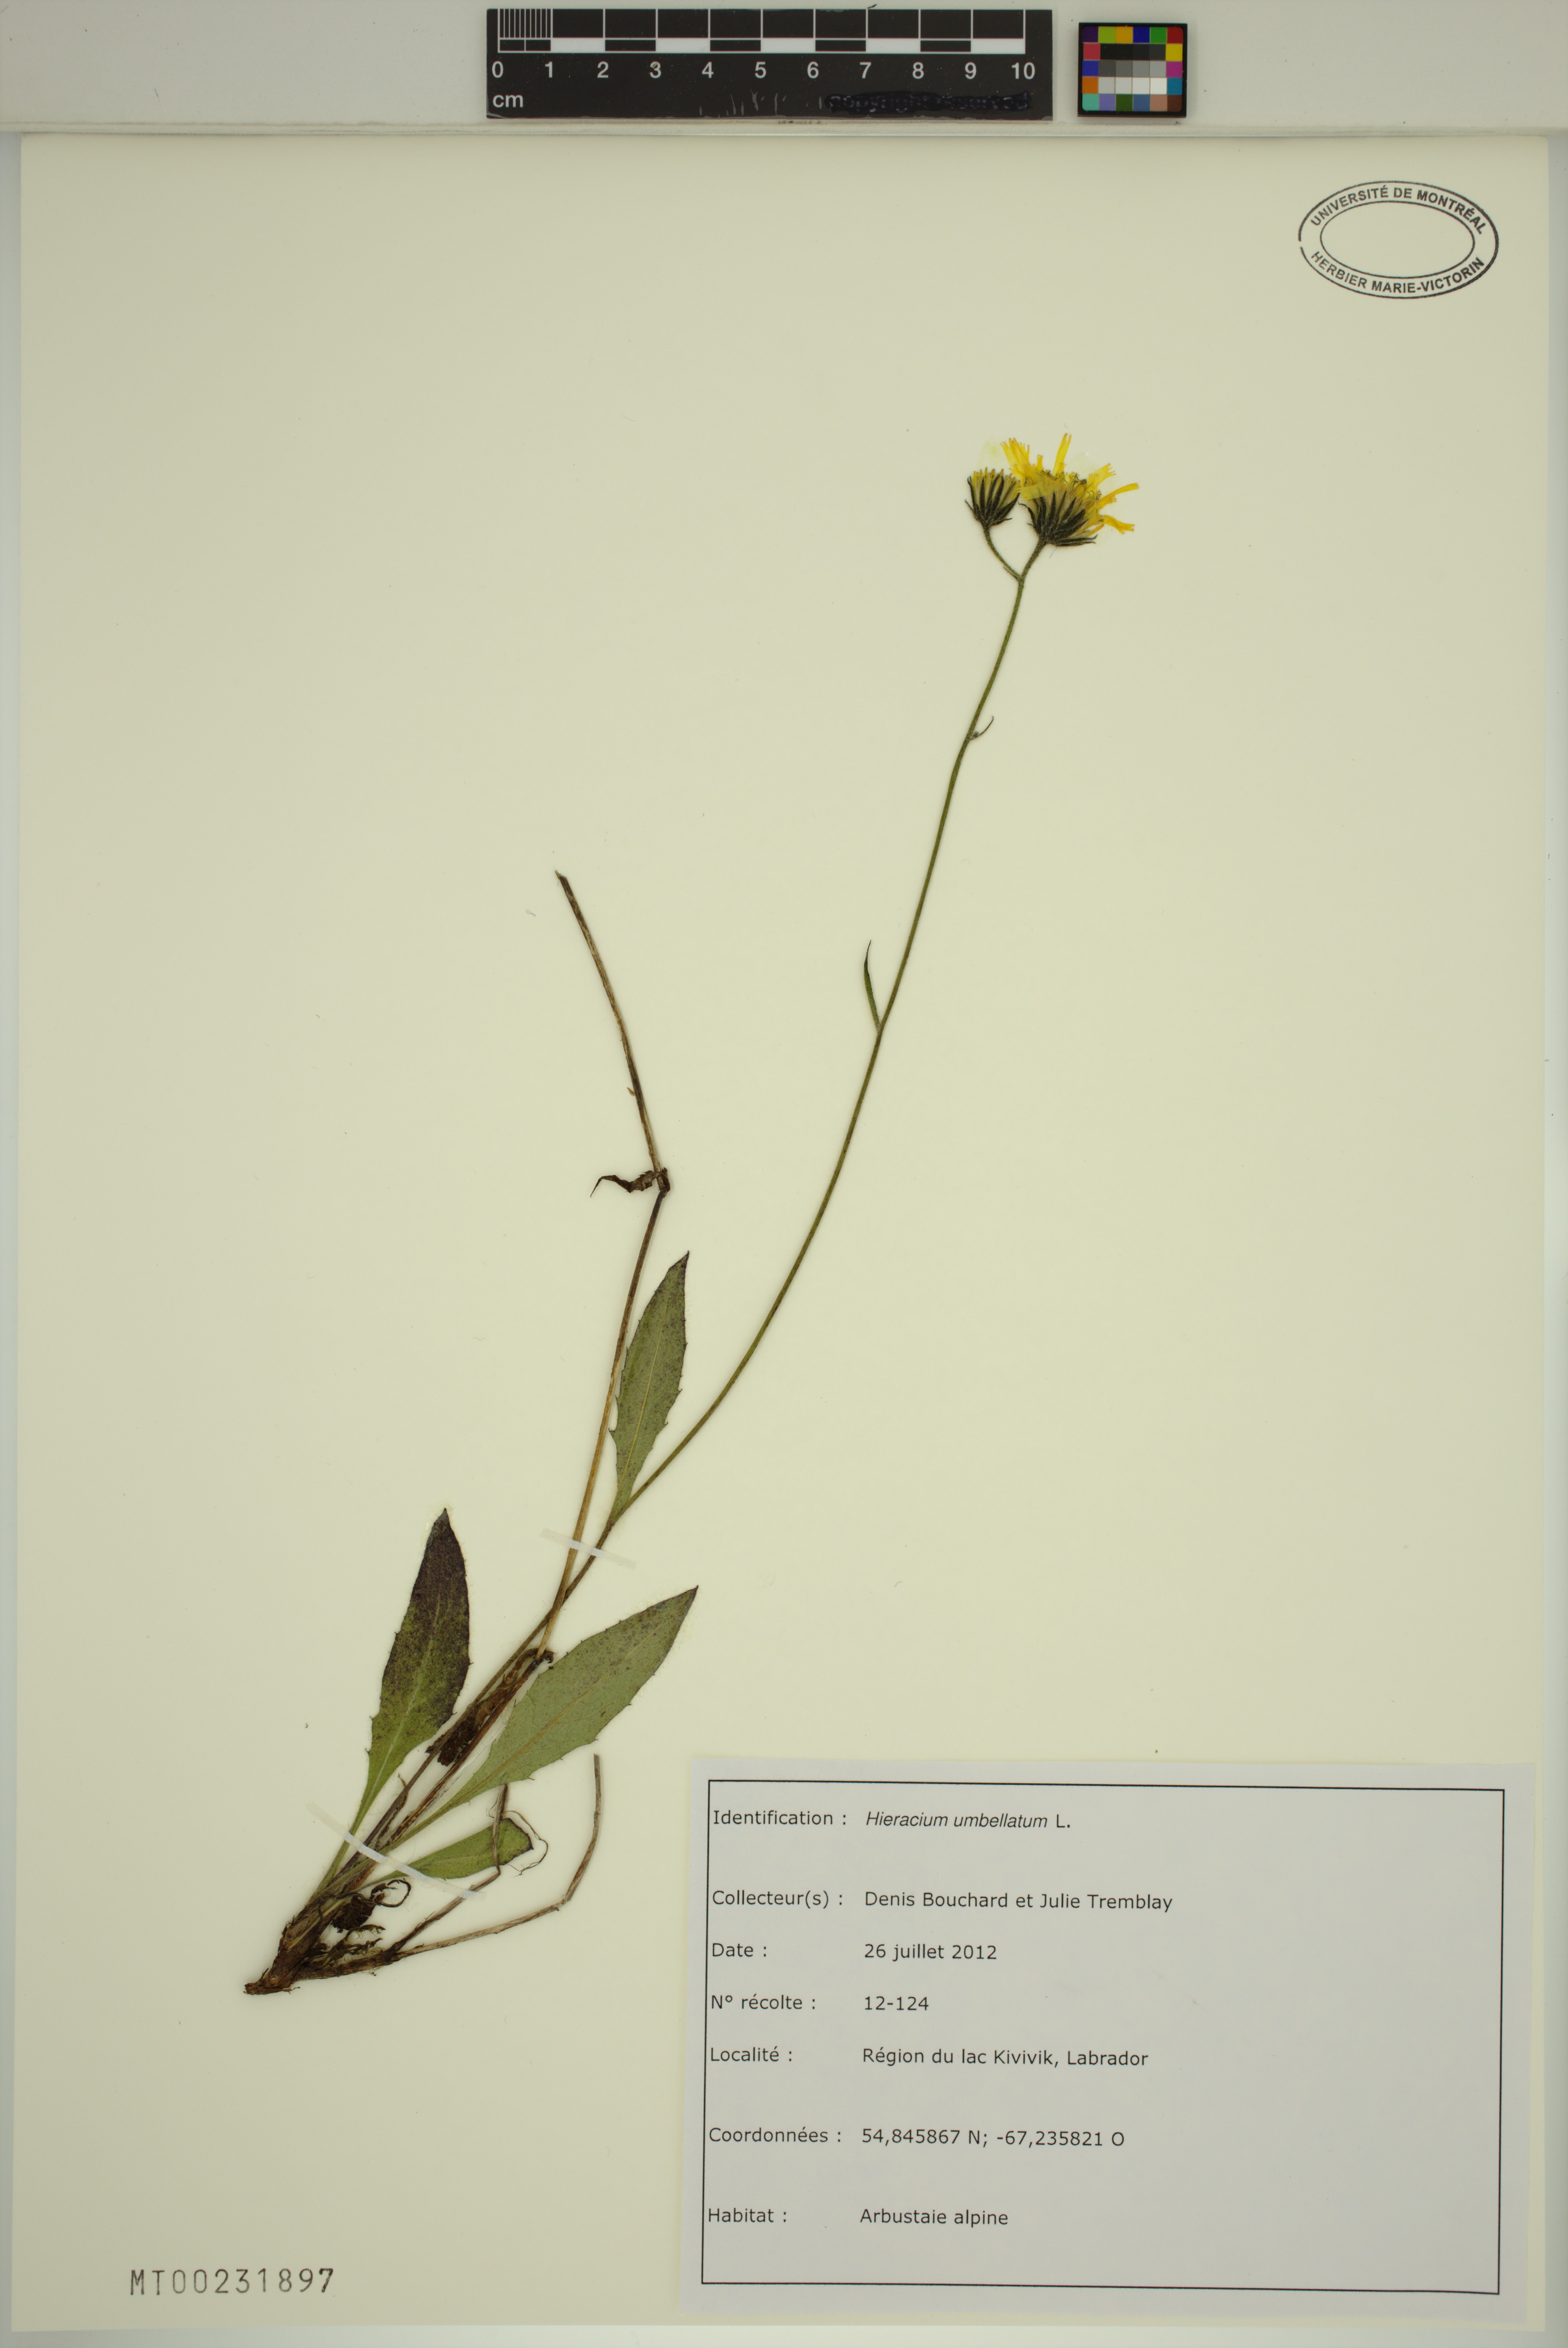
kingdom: Plantae
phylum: Tracheophyta
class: Magnoliopsida
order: Asterales
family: Asteraceae
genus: Hieracium
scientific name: Hieracium umbellatum
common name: Northern hawkweed
